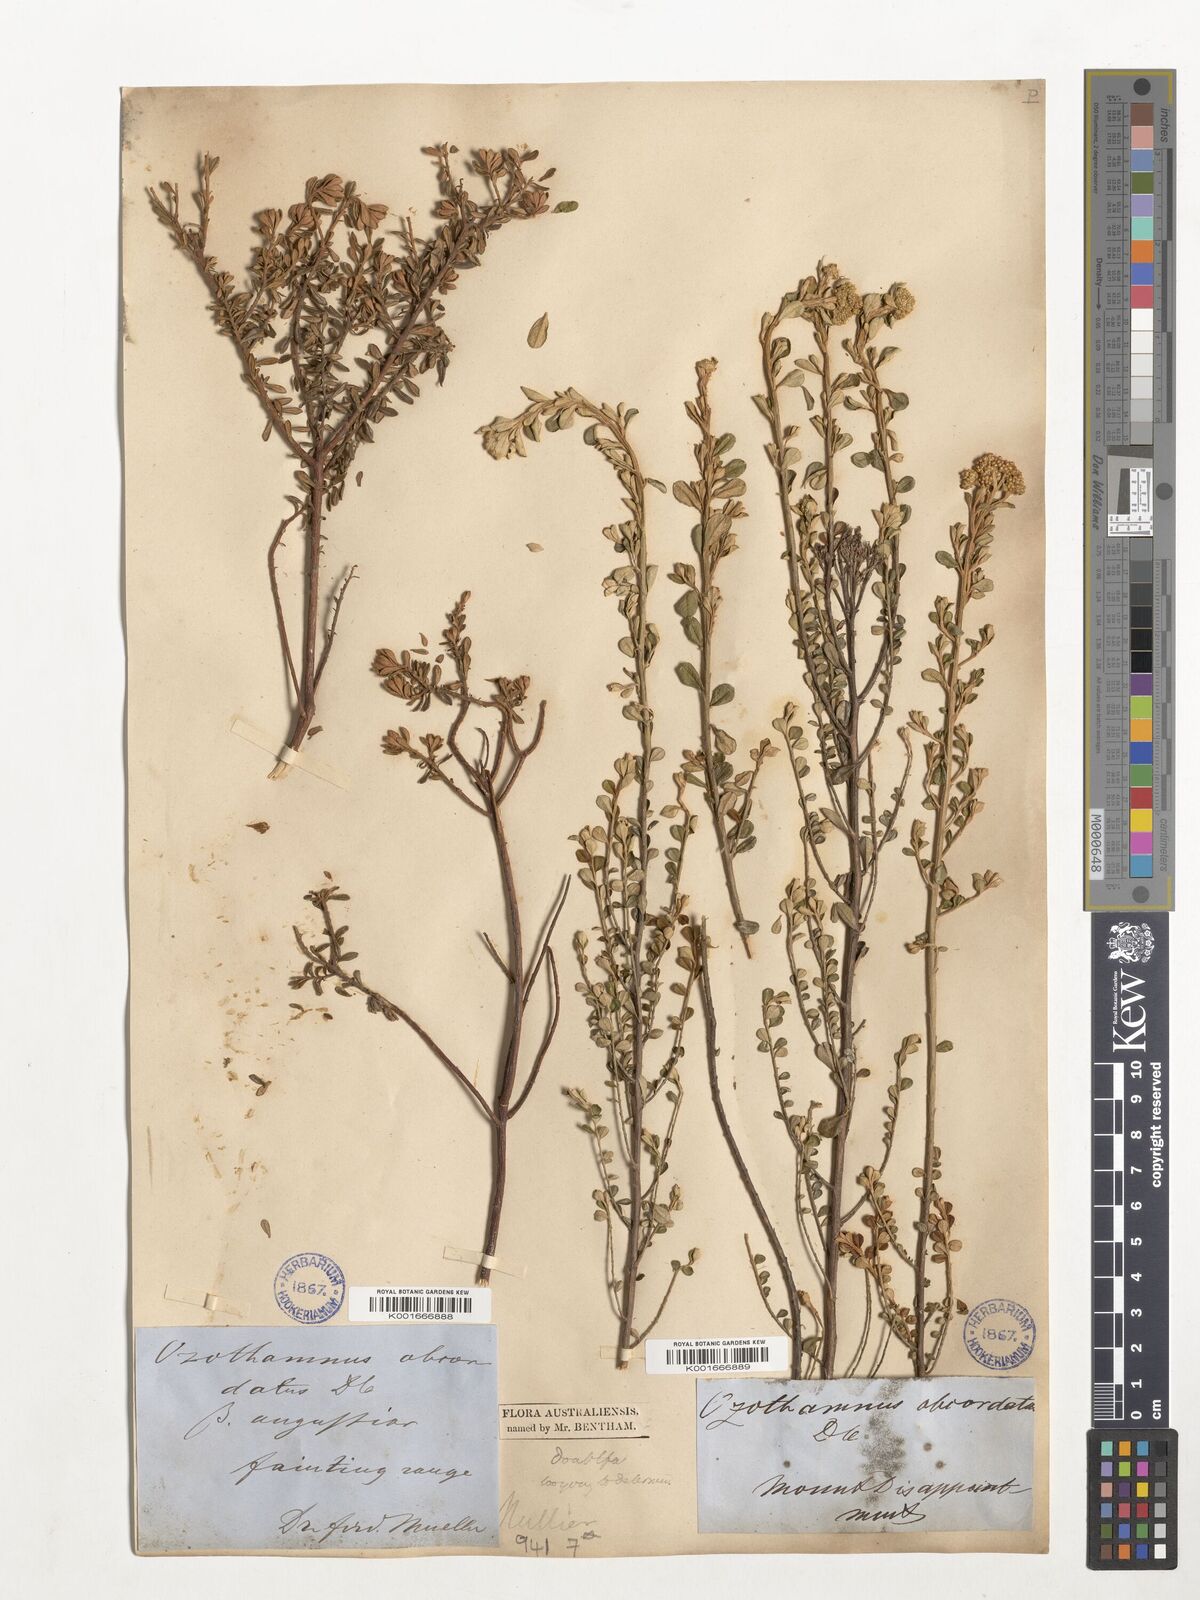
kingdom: Plantae
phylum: Tracheophyta
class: Magnoliopsida
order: Asterales
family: Asteraceae
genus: Ozothamnus
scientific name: Ozothamnus
